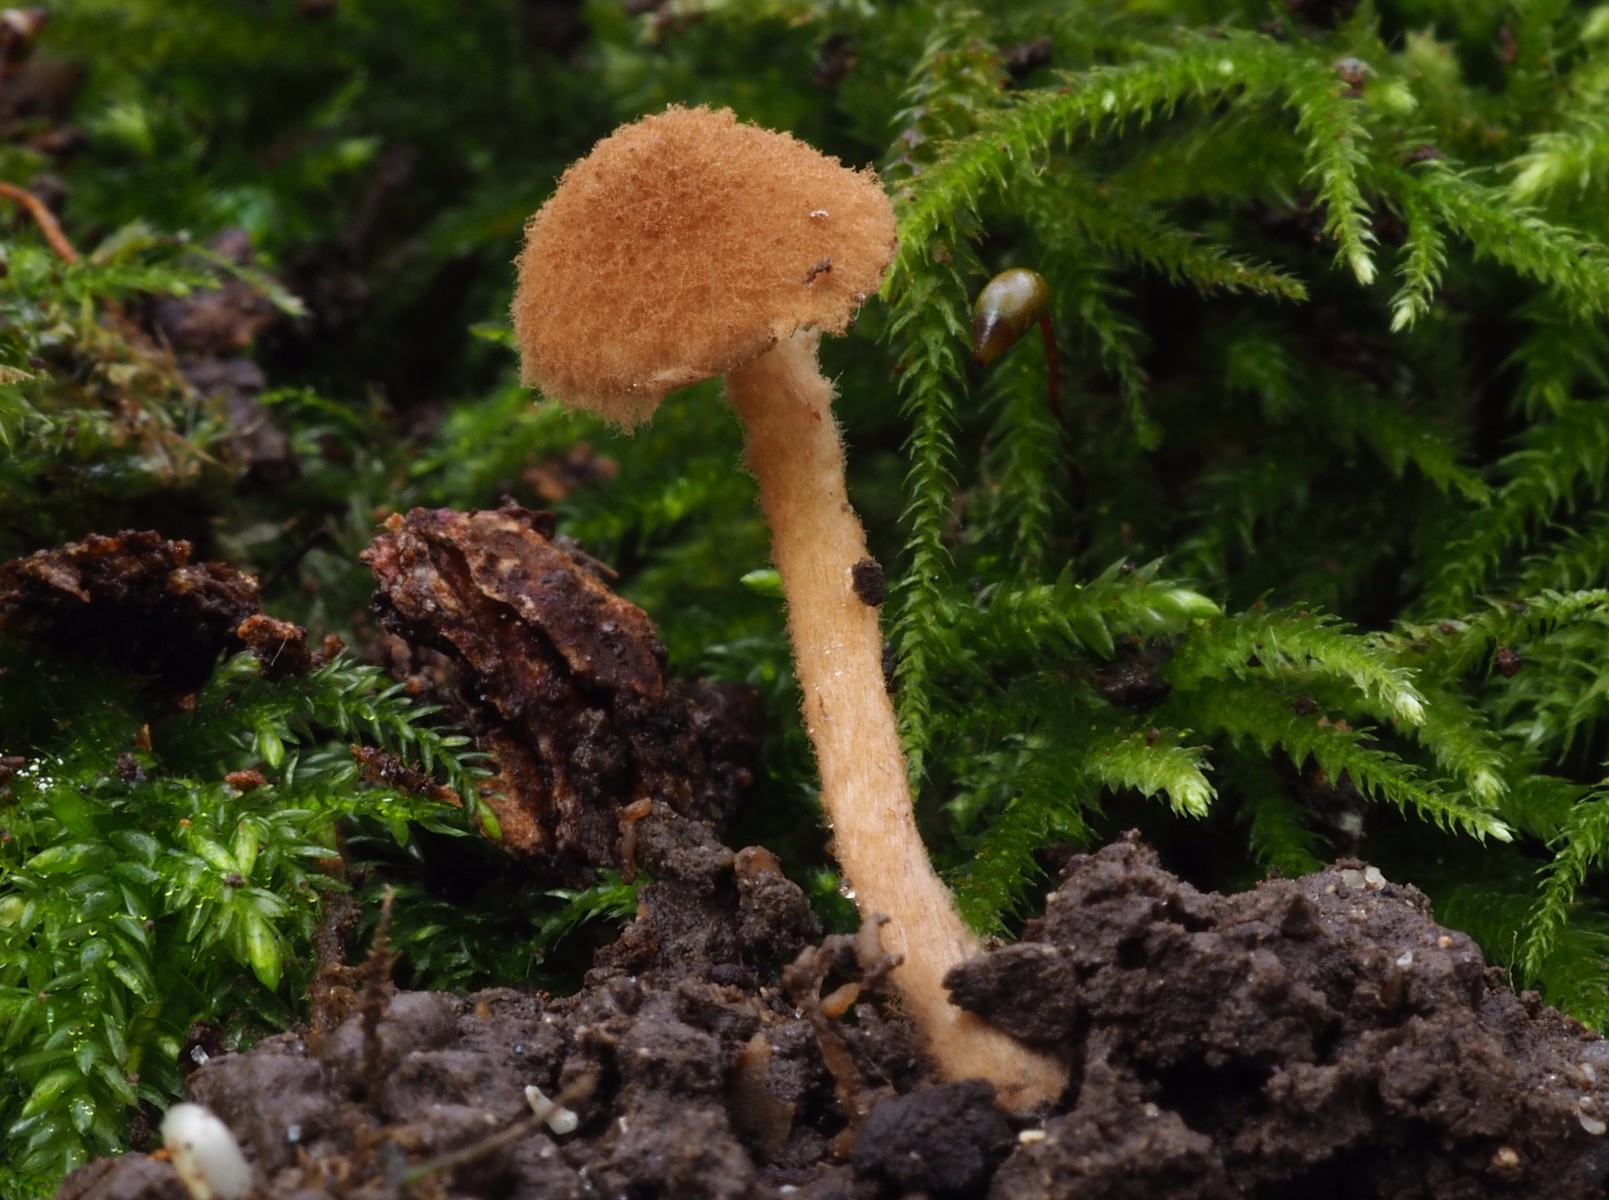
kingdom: Fungi
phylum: Basidiomycota
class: Agaricomycetes
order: Agaricales
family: Tubariaceae
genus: Flammulaster
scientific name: Flammulaster granulosus
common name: gulbrun grynskælhat
